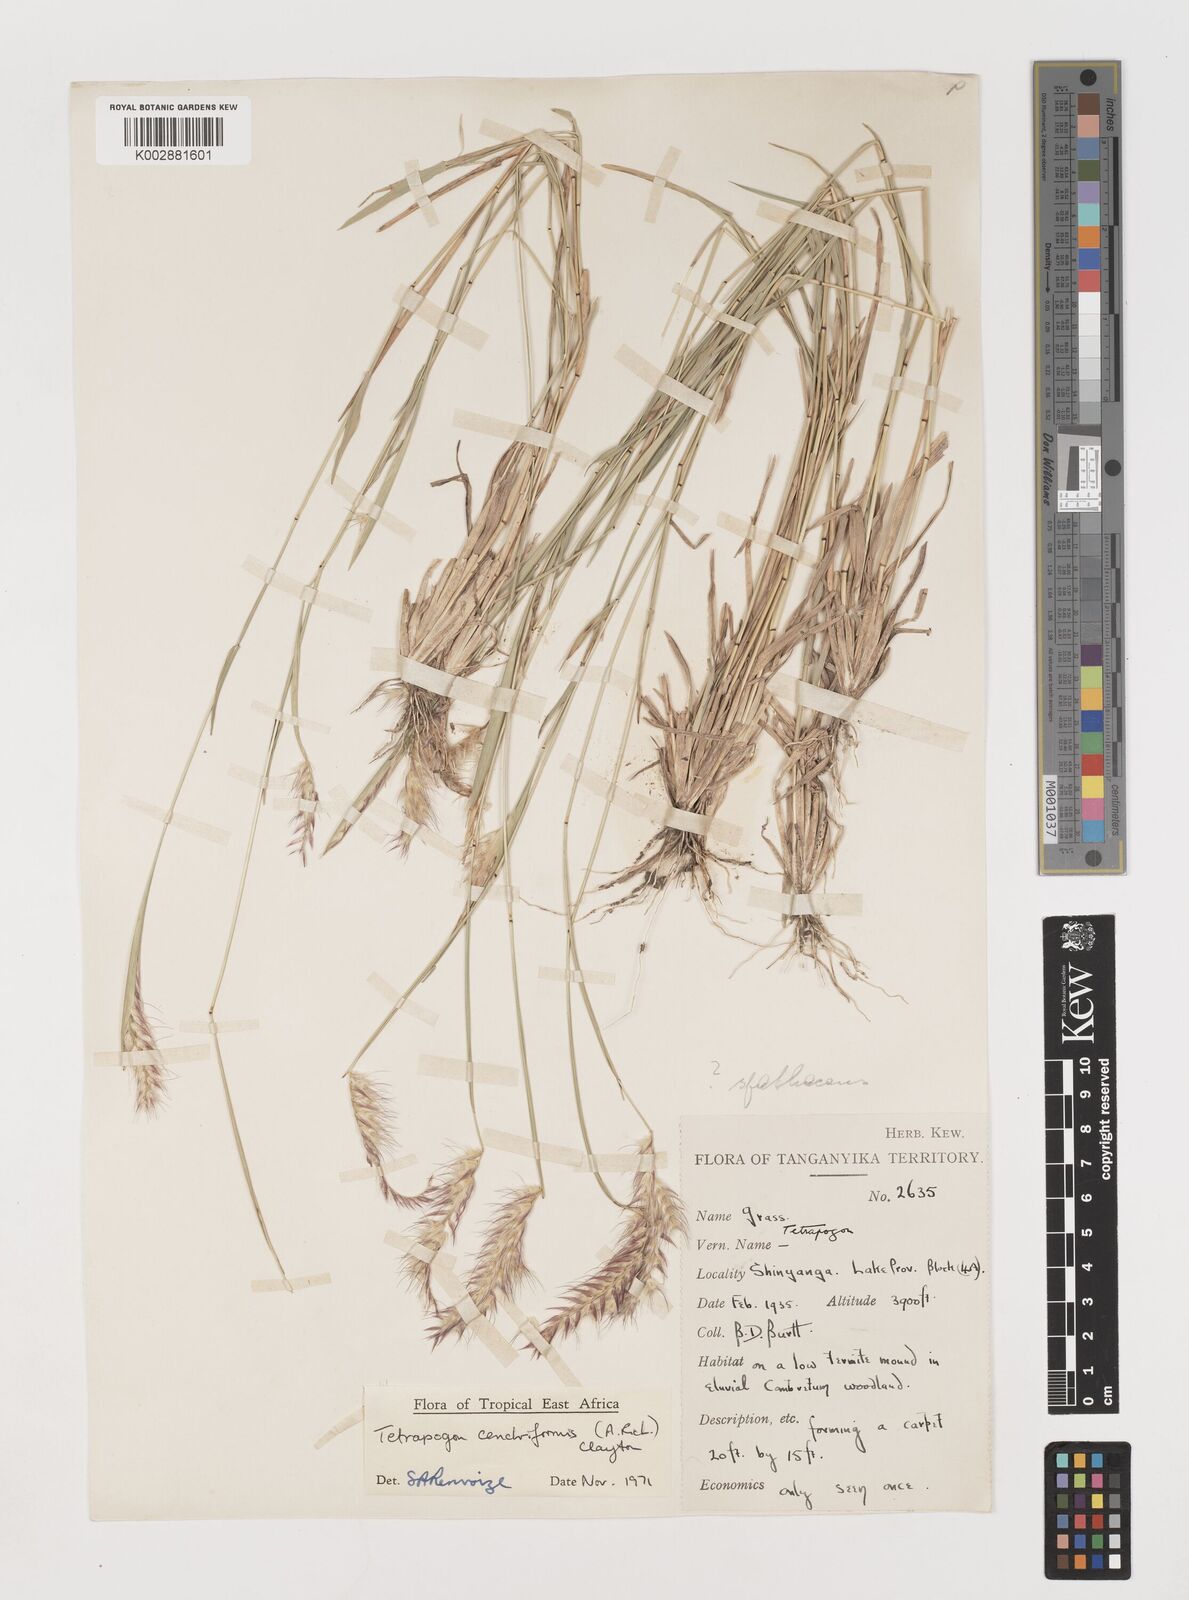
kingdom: Plantae
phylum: Tracheophyta
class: Liliopsida
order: Poales
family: Poaceae
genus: Tetrapogon
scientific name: Tetrapogon cenchriformis
